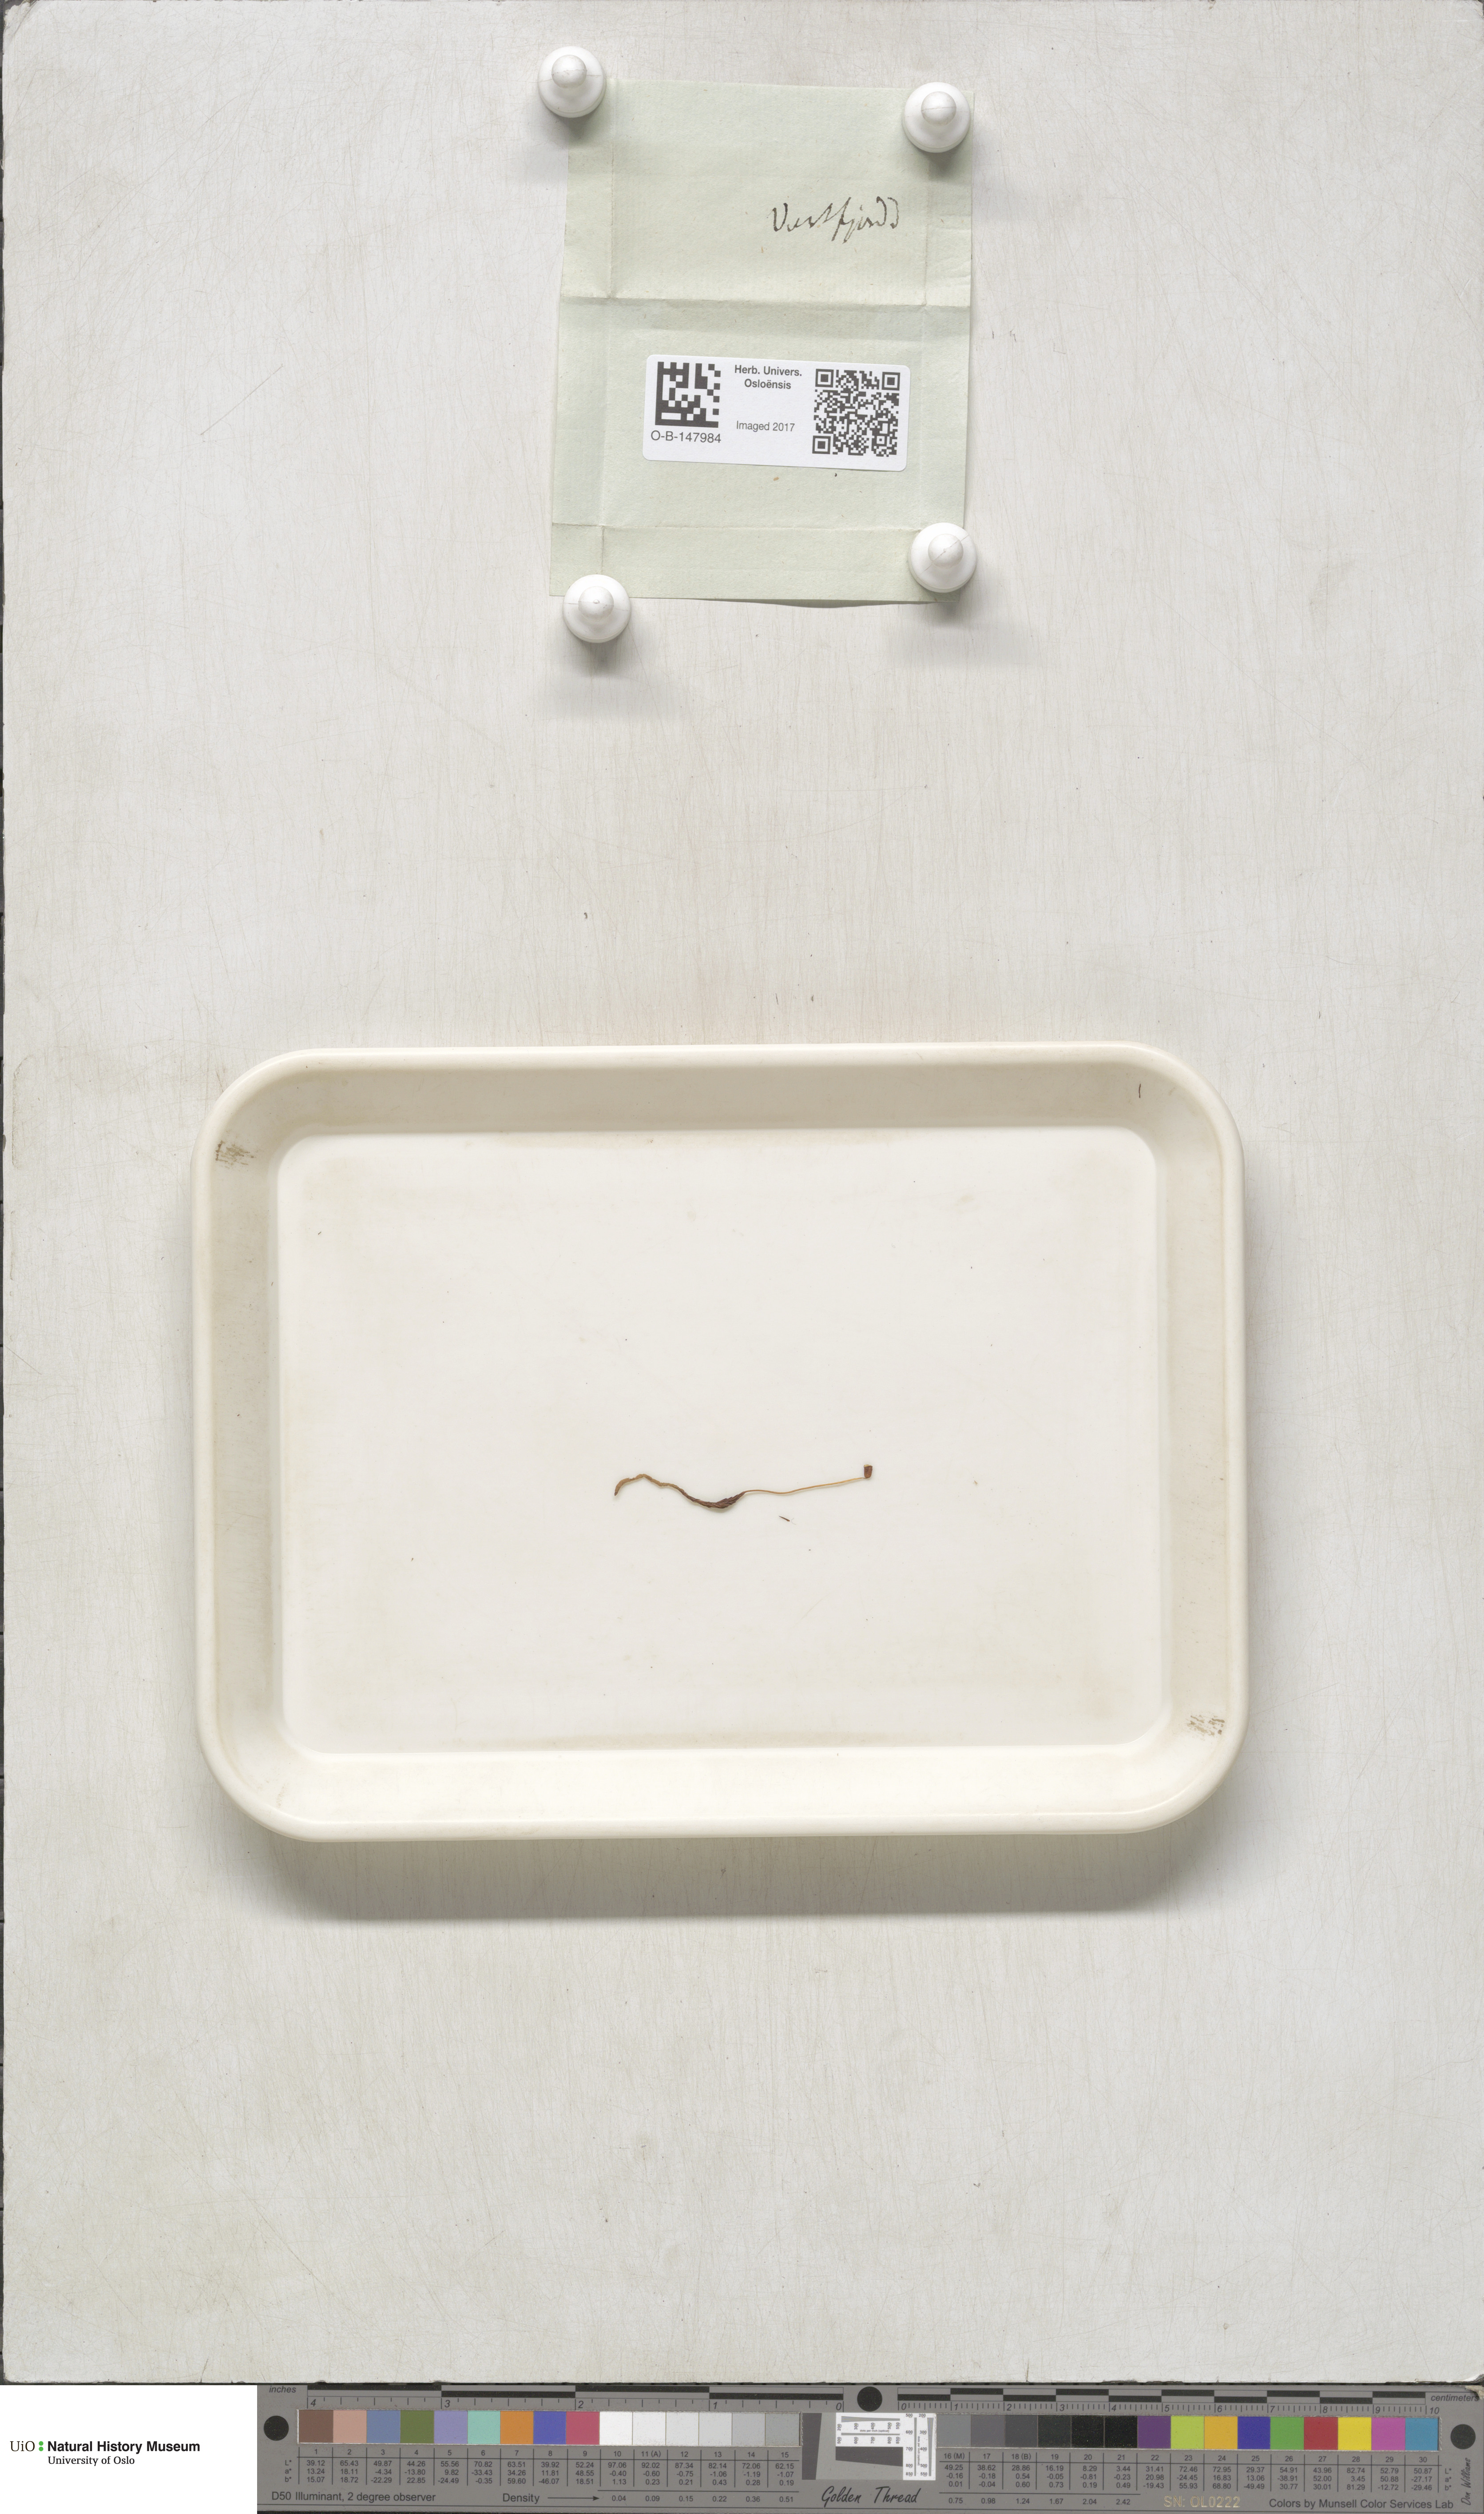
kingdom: Plantae
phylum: Bryophyta
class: Polytrichopsida
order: Polytrichales
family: Polytrichaceae
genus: Polytrichastrum
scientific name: Polytrichastrum alpinum
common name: Alpine haircap
